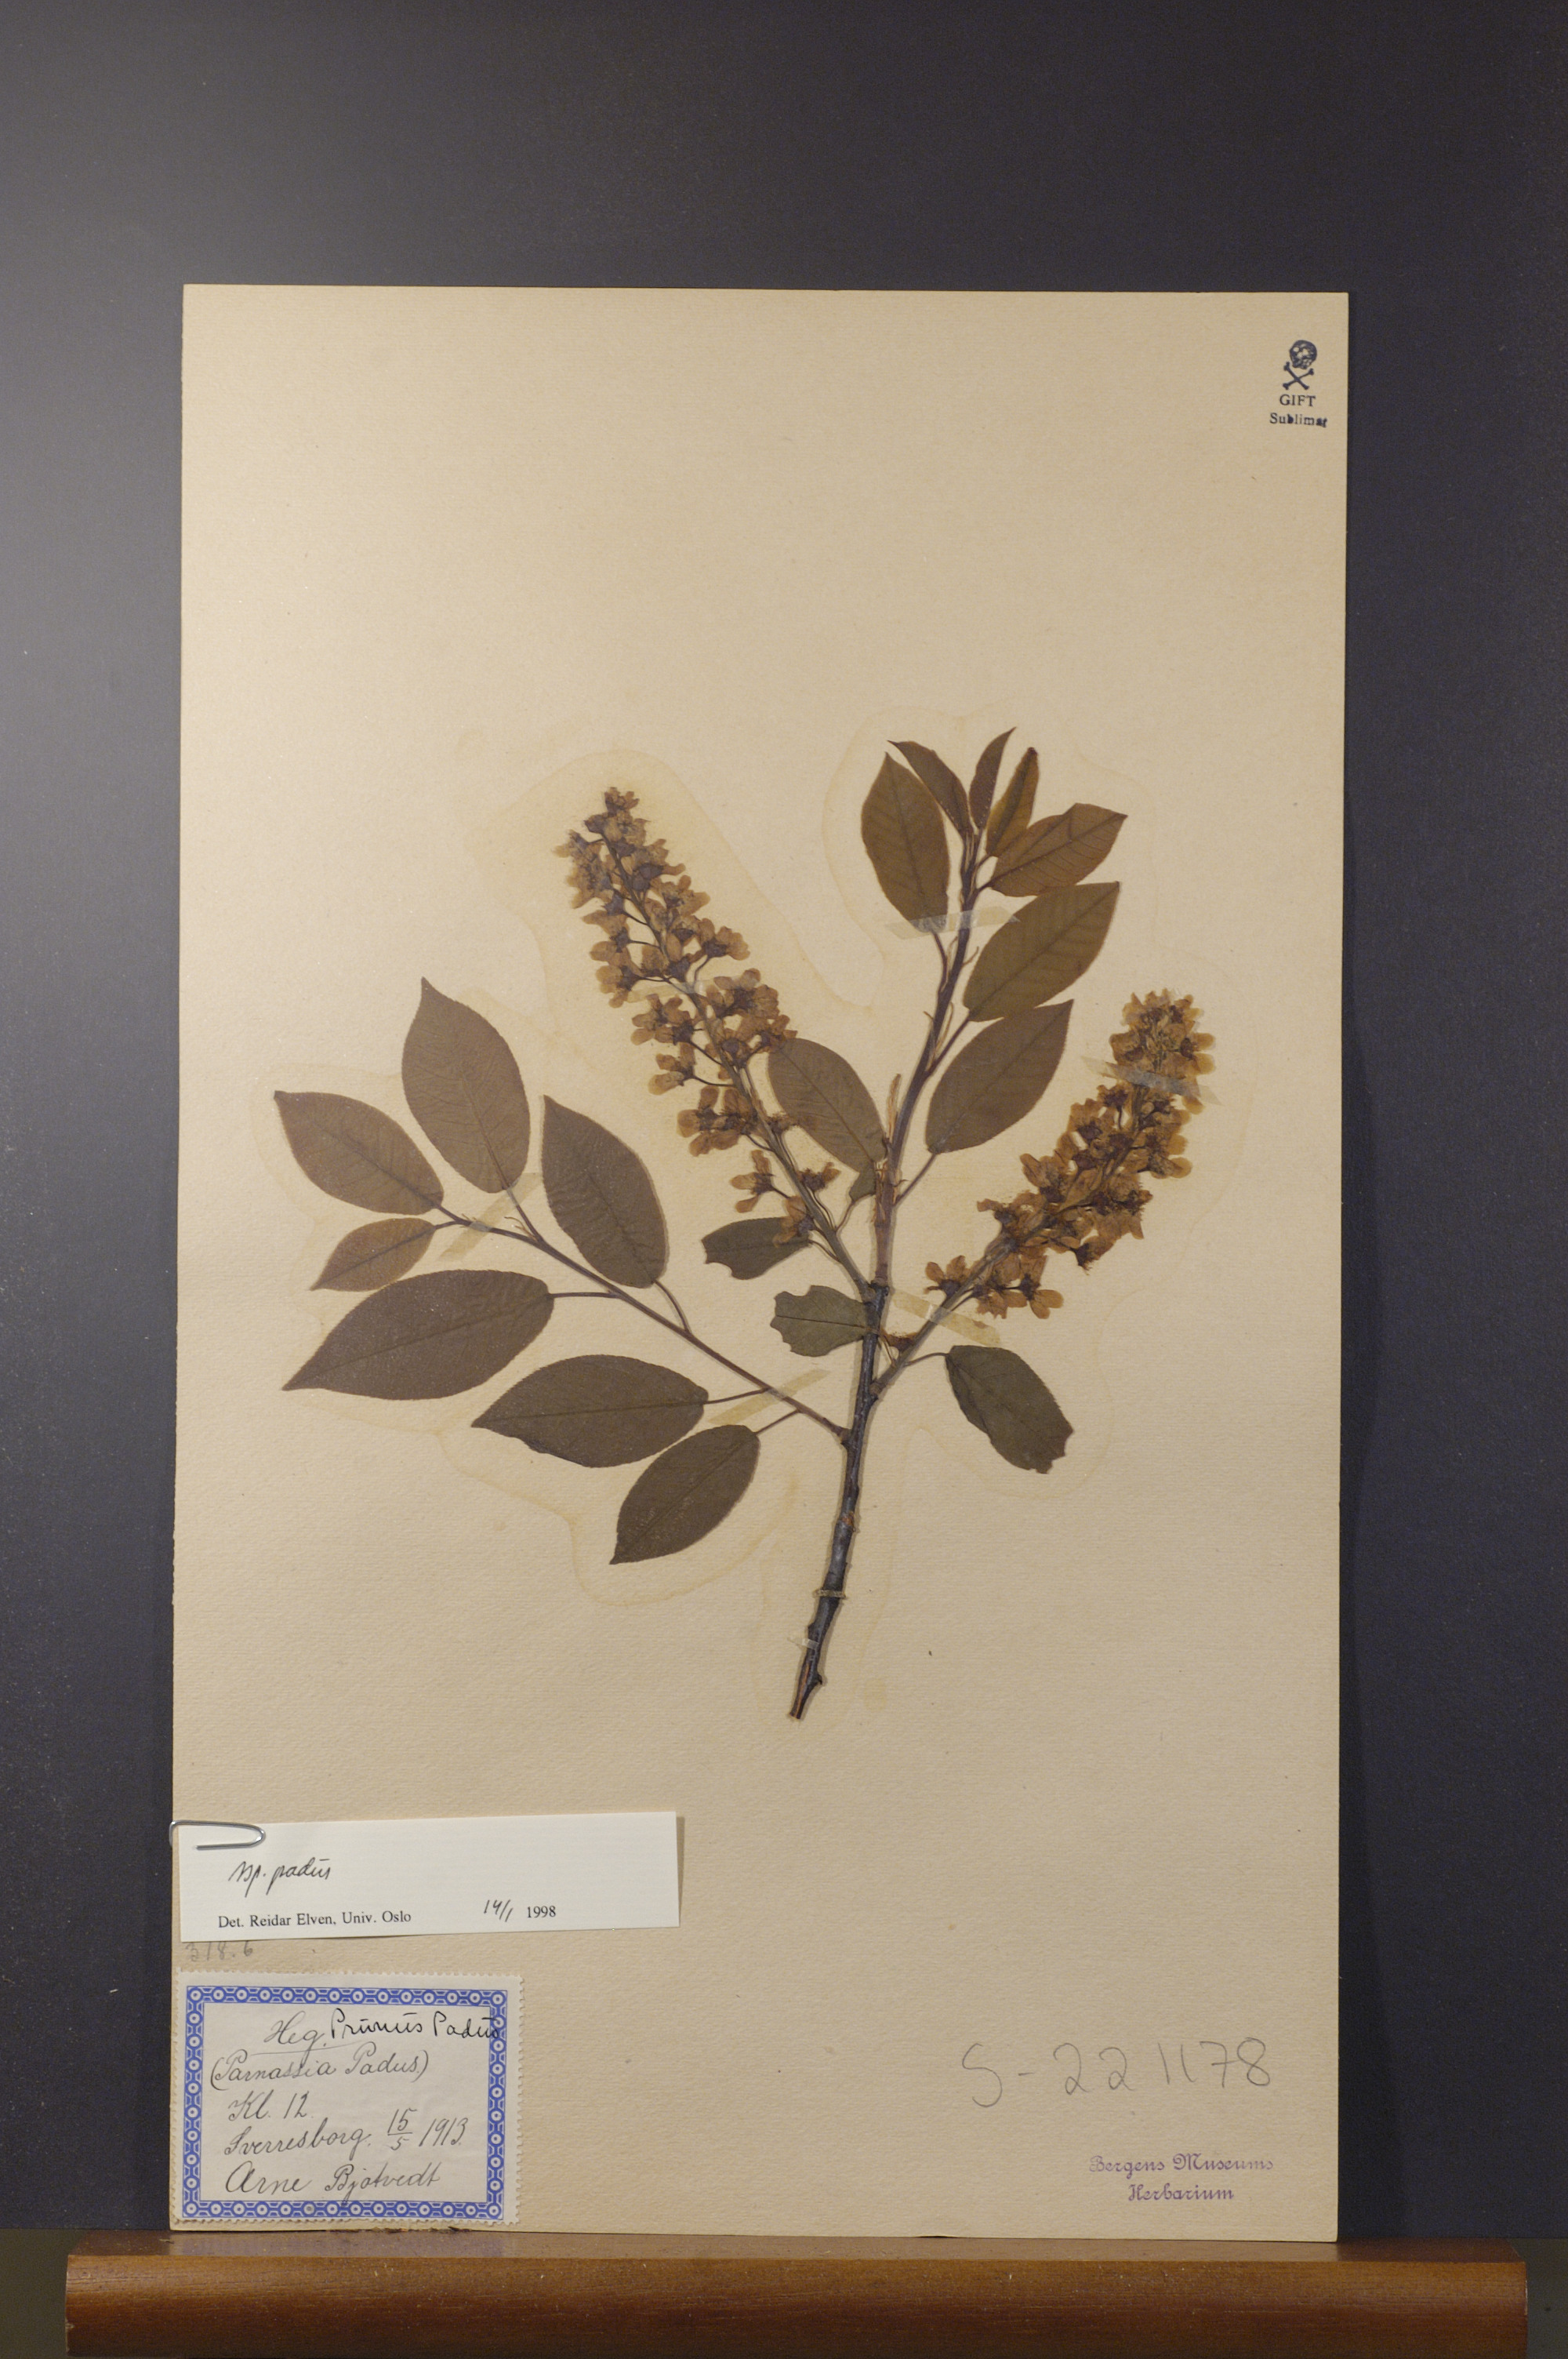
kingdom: Plantae
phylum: Tracheophyta
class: Magnoliopsida
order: Rosales
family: Rosaceae
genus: Prunus
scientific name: Prunus padus
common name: Bird cherry
